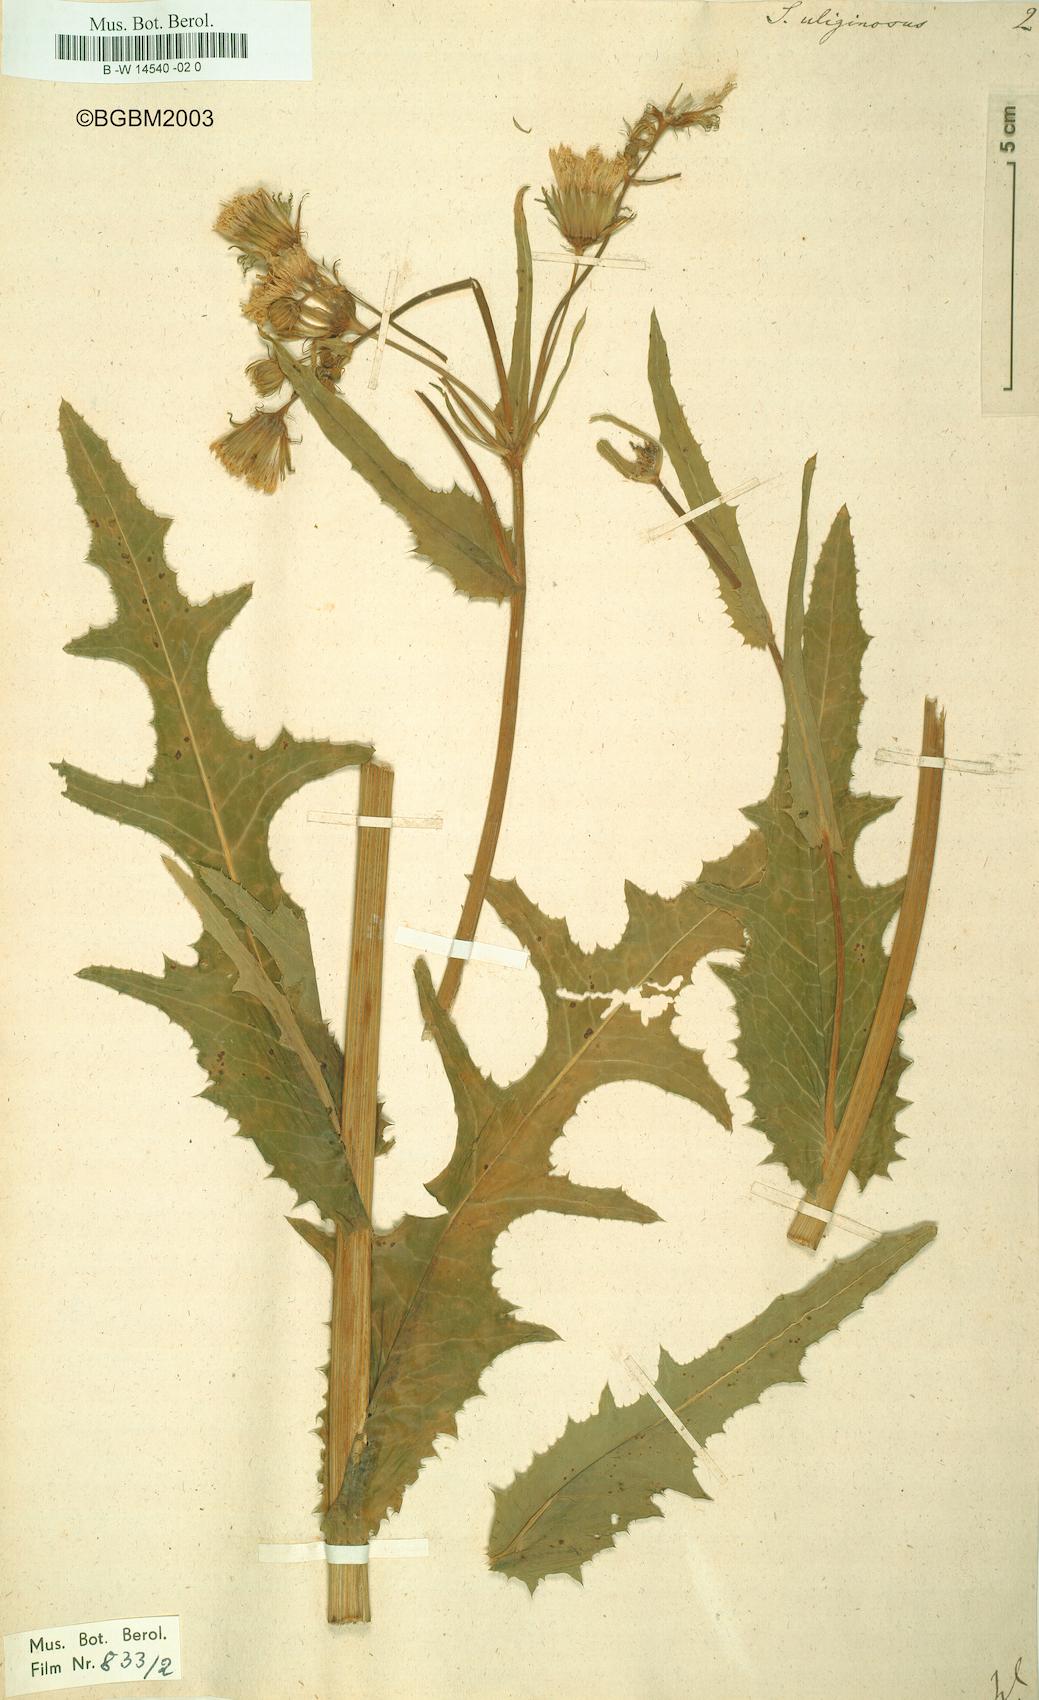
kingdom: Plantae
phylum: Tracheophyta
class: Magnoliopsida
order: Asterales
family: Asteraceae
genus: Sonchus
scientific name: Sonchus arvensis
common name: Perennial sow-thistle
